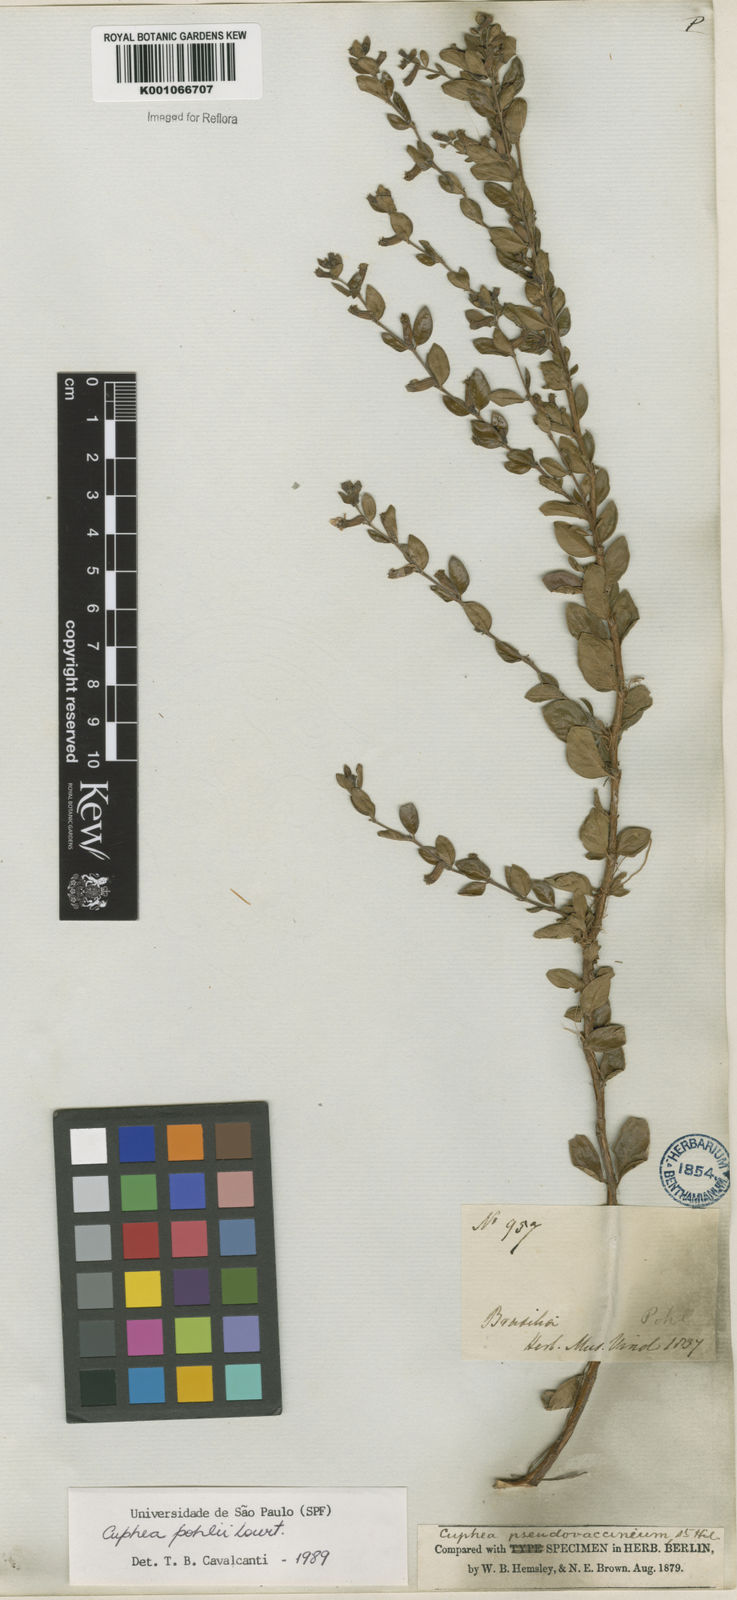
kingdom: Plantae
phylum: Tracheophyta
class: Magnoliopsida
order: Myrtales
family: Lythraceae
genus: Cuphea
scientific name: Cuphea pohlii
